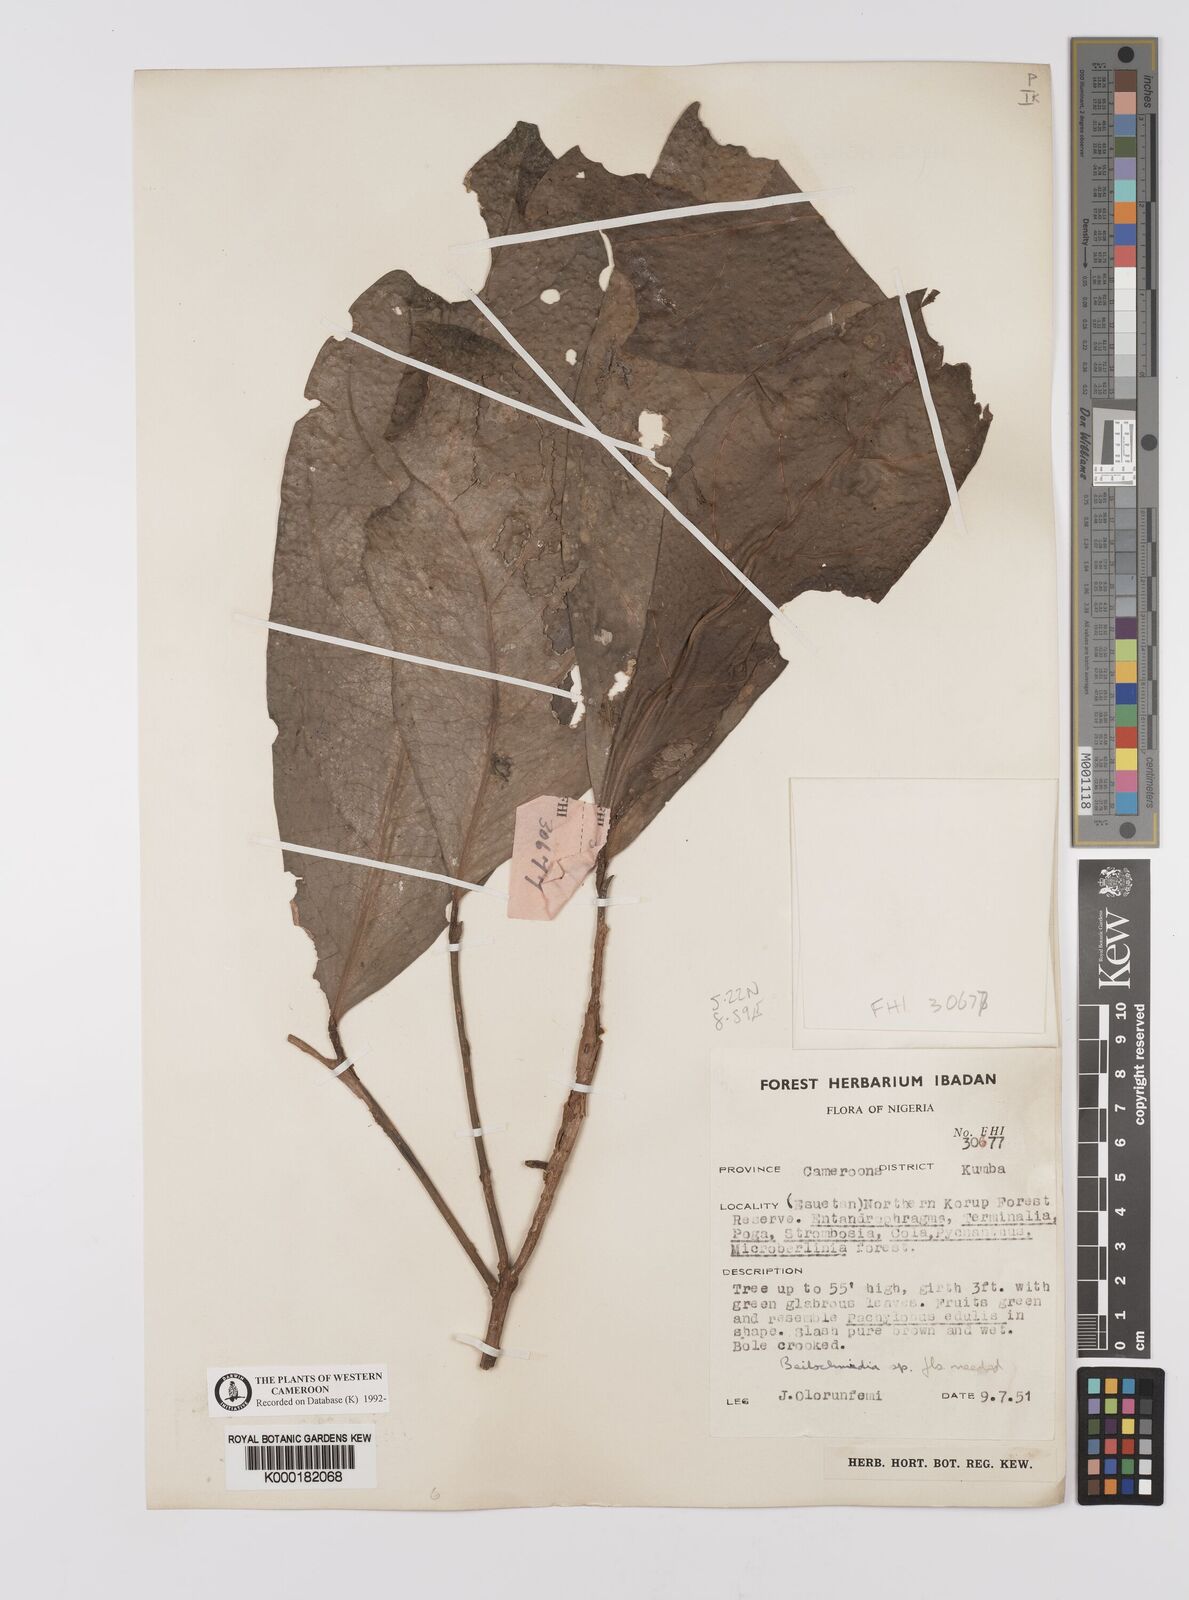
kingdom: Plantae
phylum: Tracheophyta
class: Magnoliopsida
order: Laurales
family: Lauraceae
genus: Beilschmiedia
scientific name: Beilschmiedia
